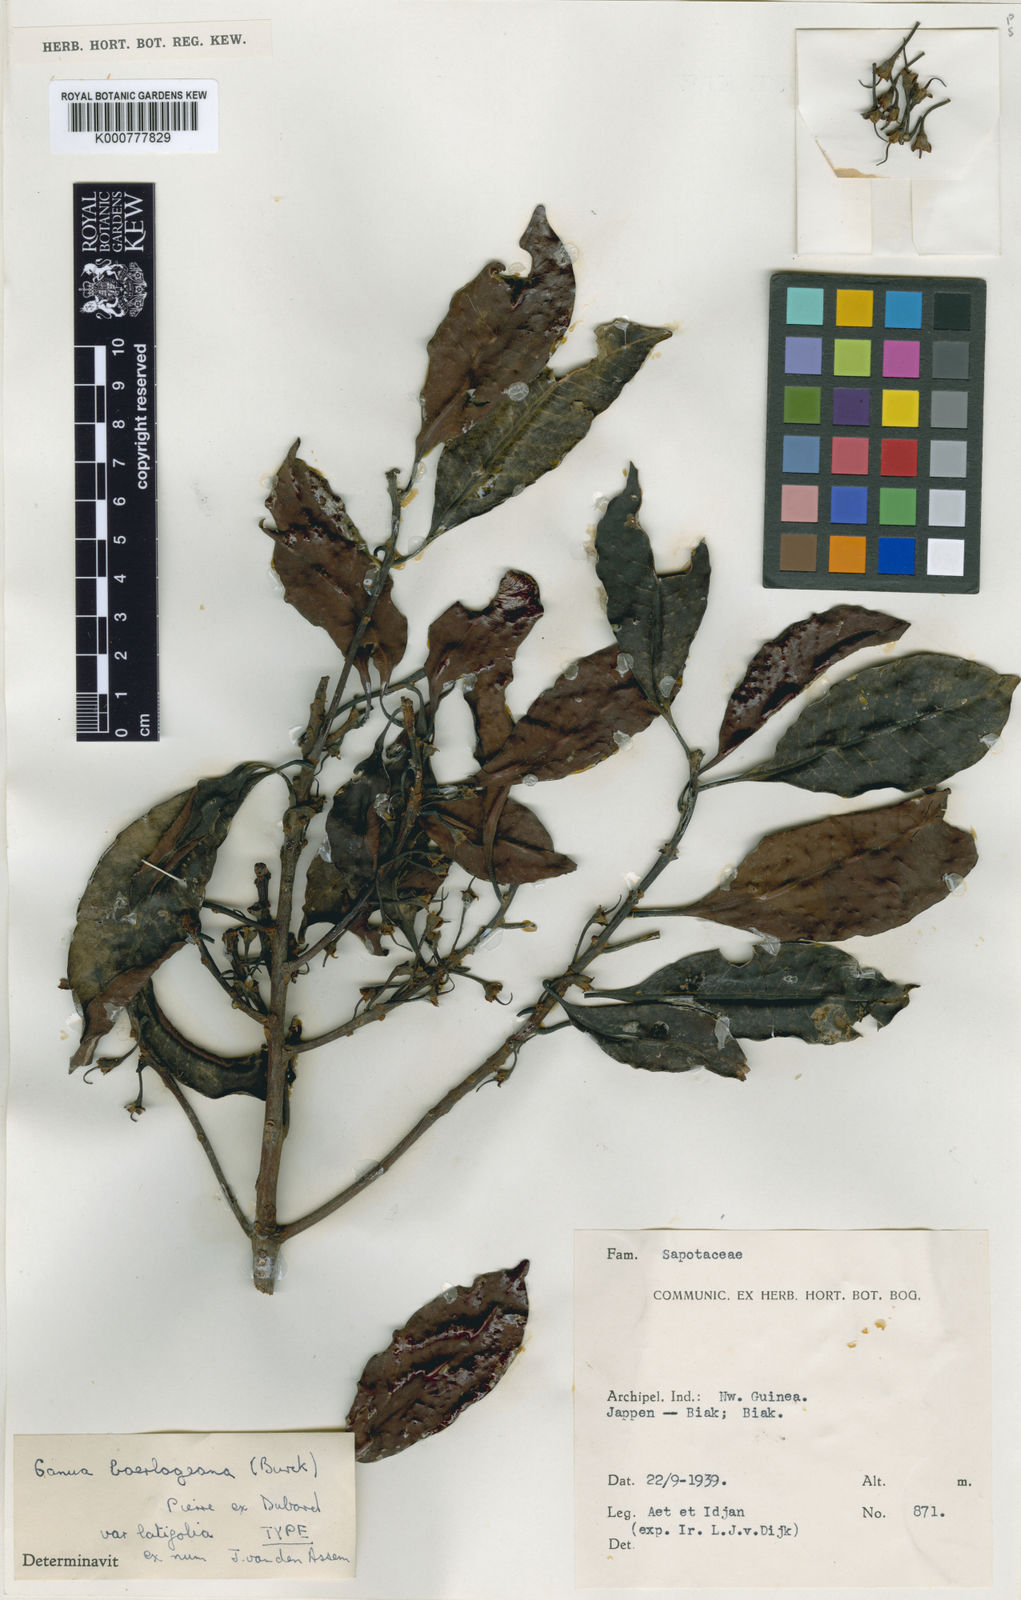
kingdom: Plantae
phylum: Tracheophyta
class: Magnoliopsida
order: Ericales
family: Sapotaceae
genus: Madhuca
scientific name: Madhuca boerlageana
